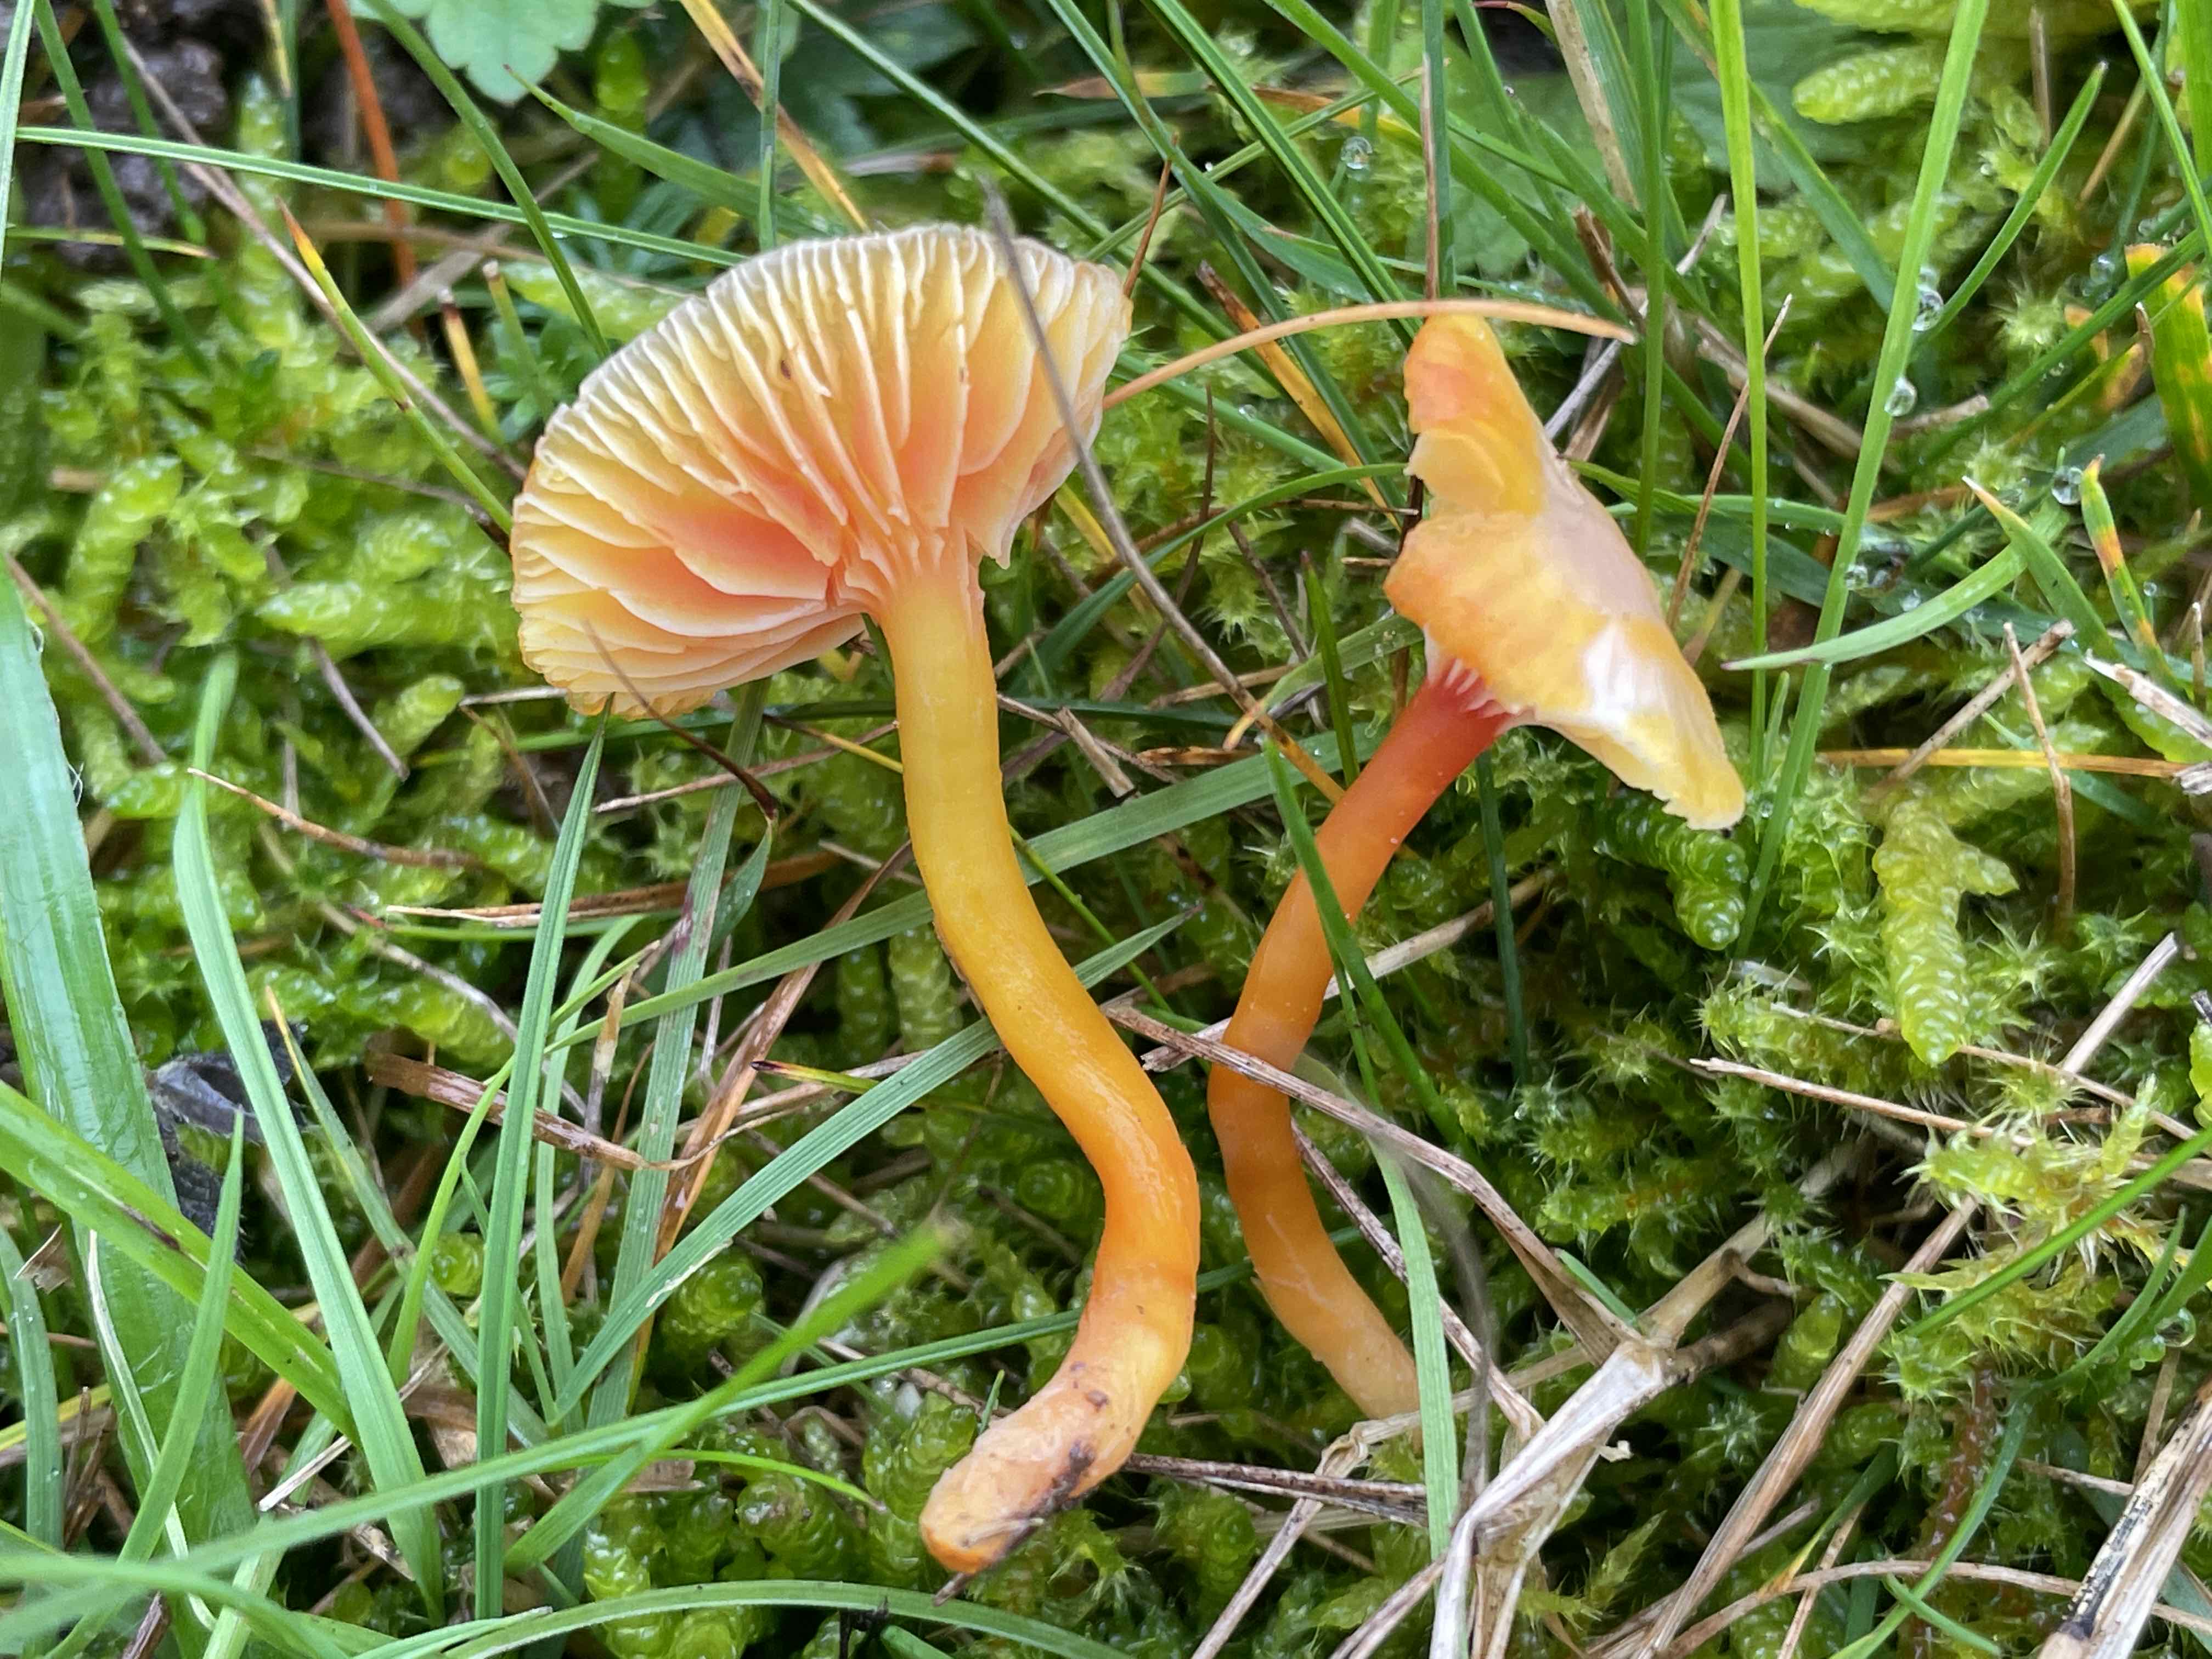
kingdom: Fungi
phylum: Basidiomycota
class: Agaricomycetes
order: Agaricales
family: Hygrophoraceae
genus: Hygrocybe
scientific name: Hygrocybe insipida
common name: liden vokshat
